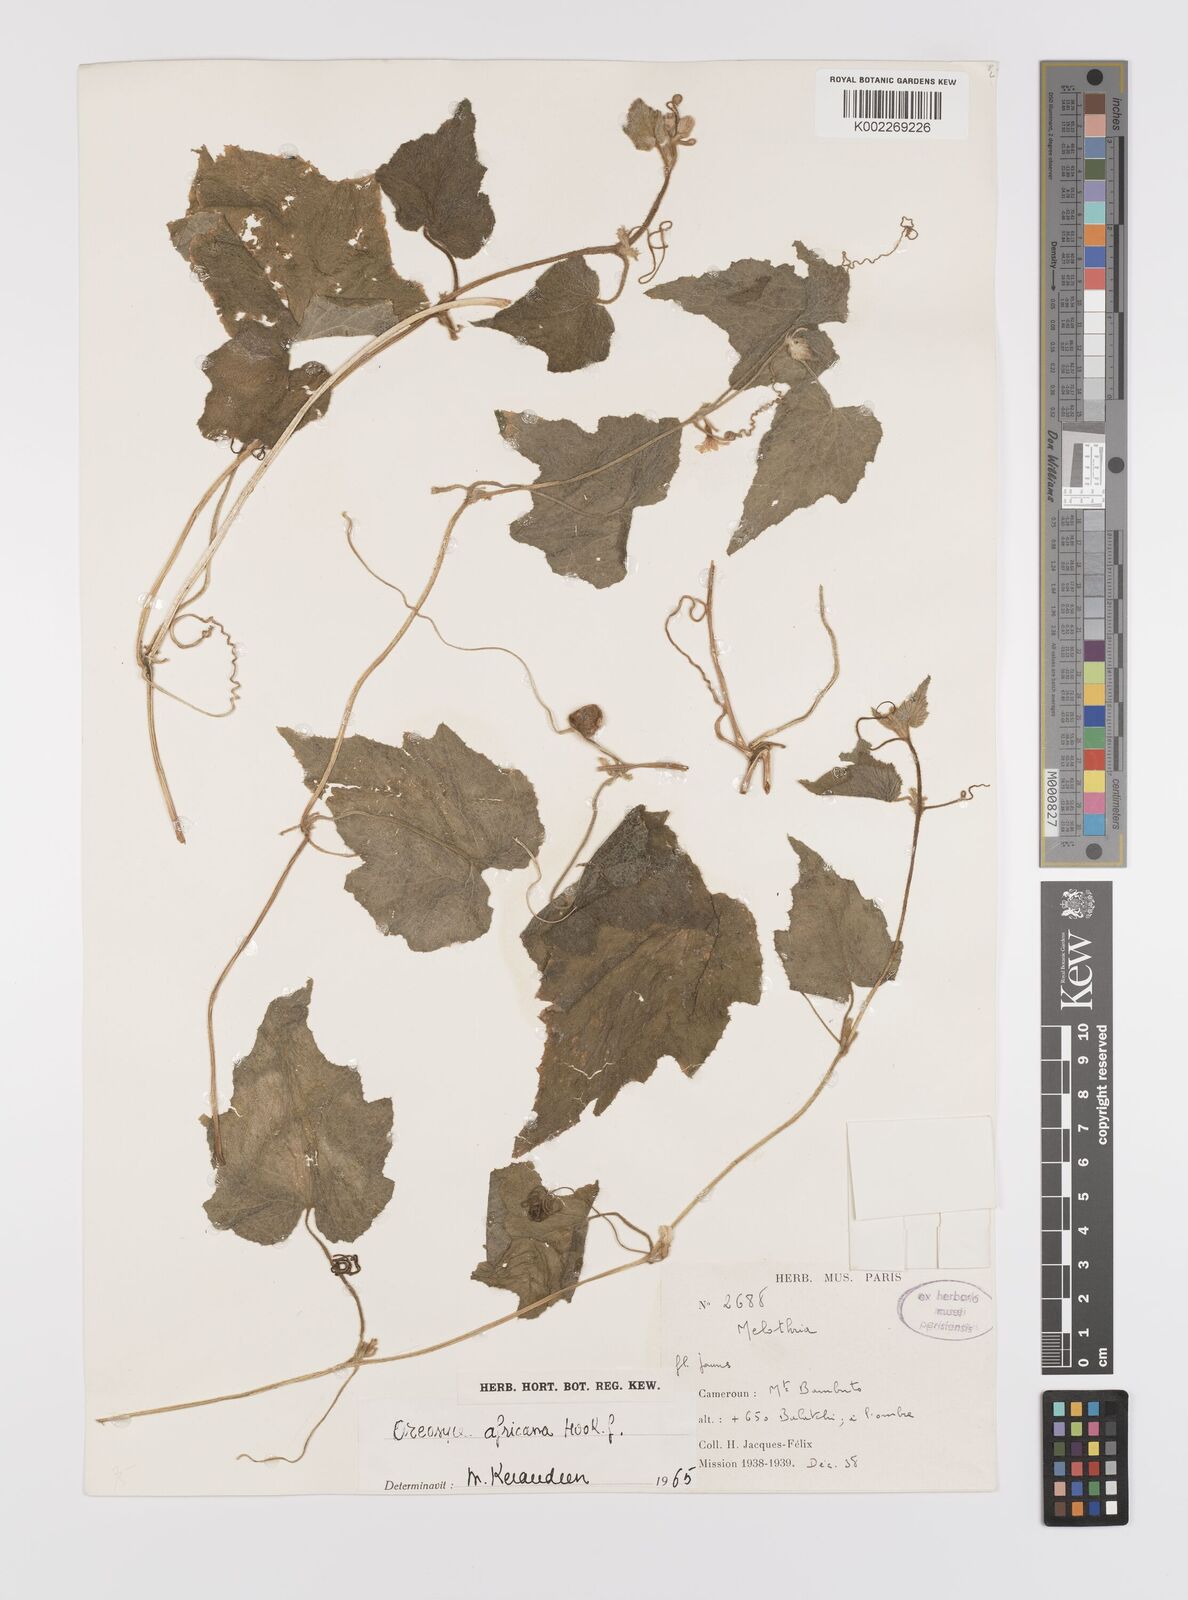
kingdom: Plantae
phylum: Tracheophyta
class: Magnoliopsida
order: Cucurbitales
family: Cucurbitaceae
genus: Cucumis
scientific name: Cucumis oreosyce
